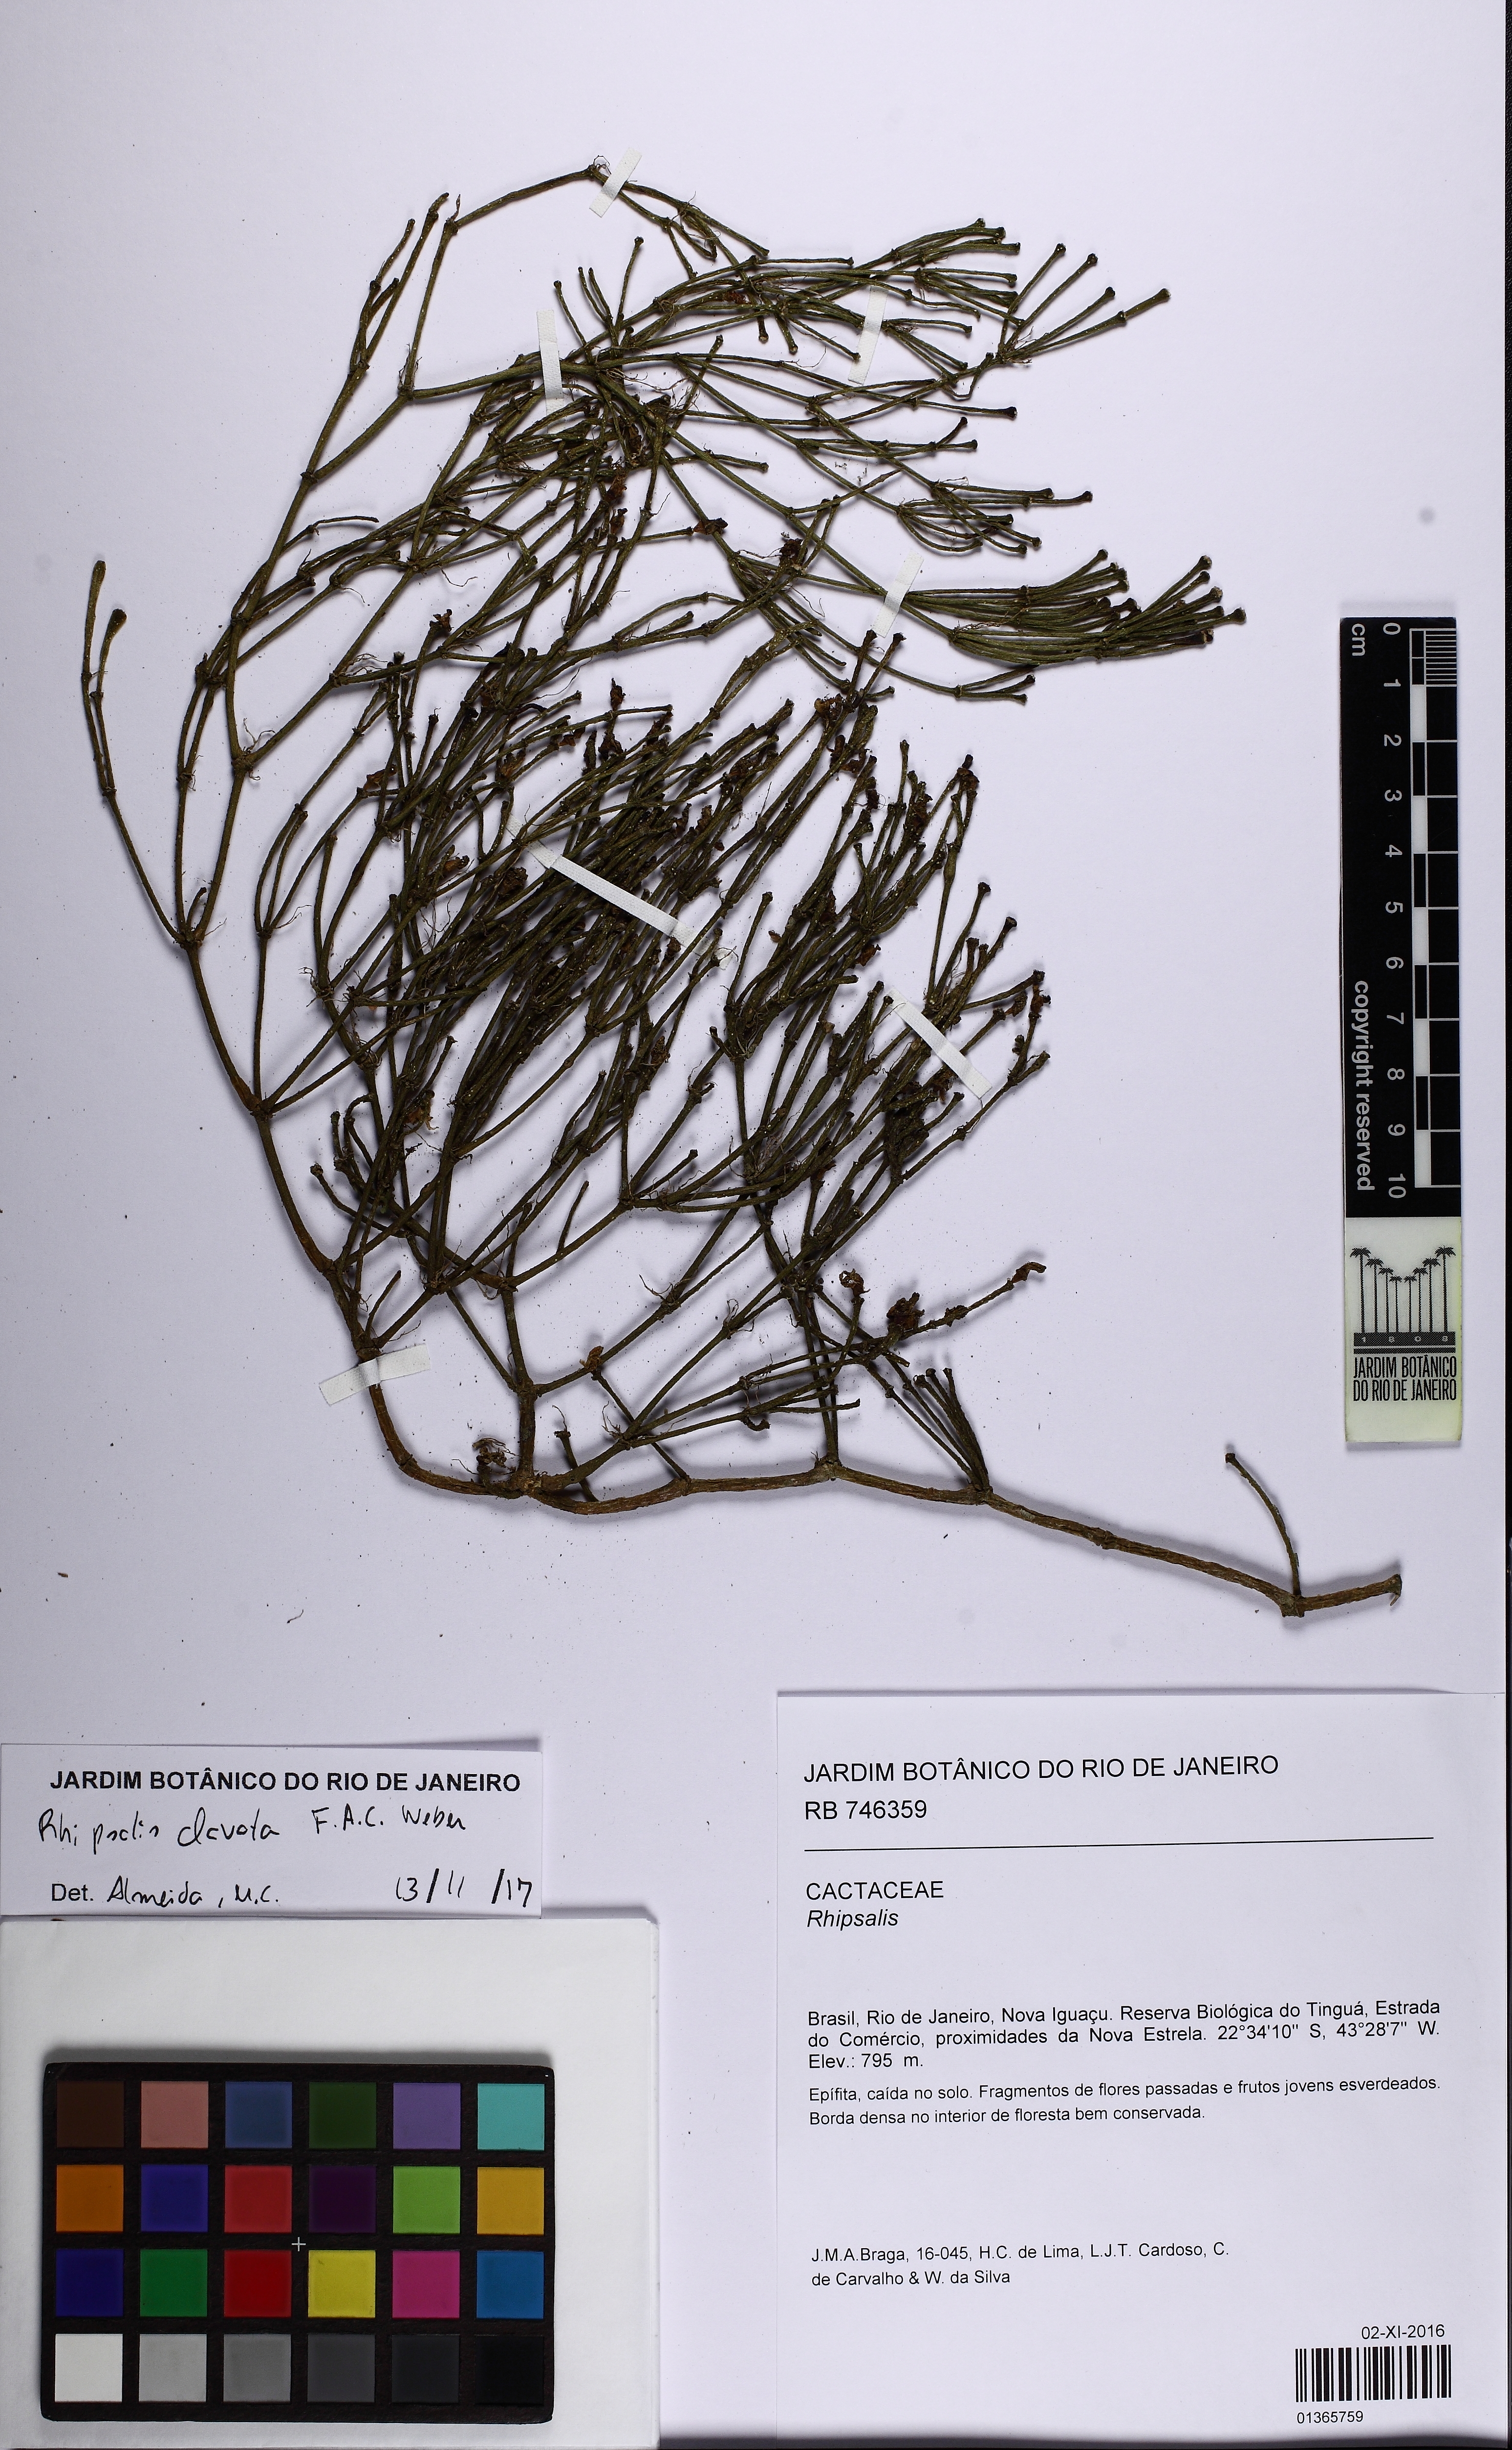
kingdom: Plantae
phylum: Tracheophyta
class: Magnoliopsida
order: Caryophyllales
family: Cactaceae
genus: Rhipsalis
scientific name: Rhipsalis clavata
